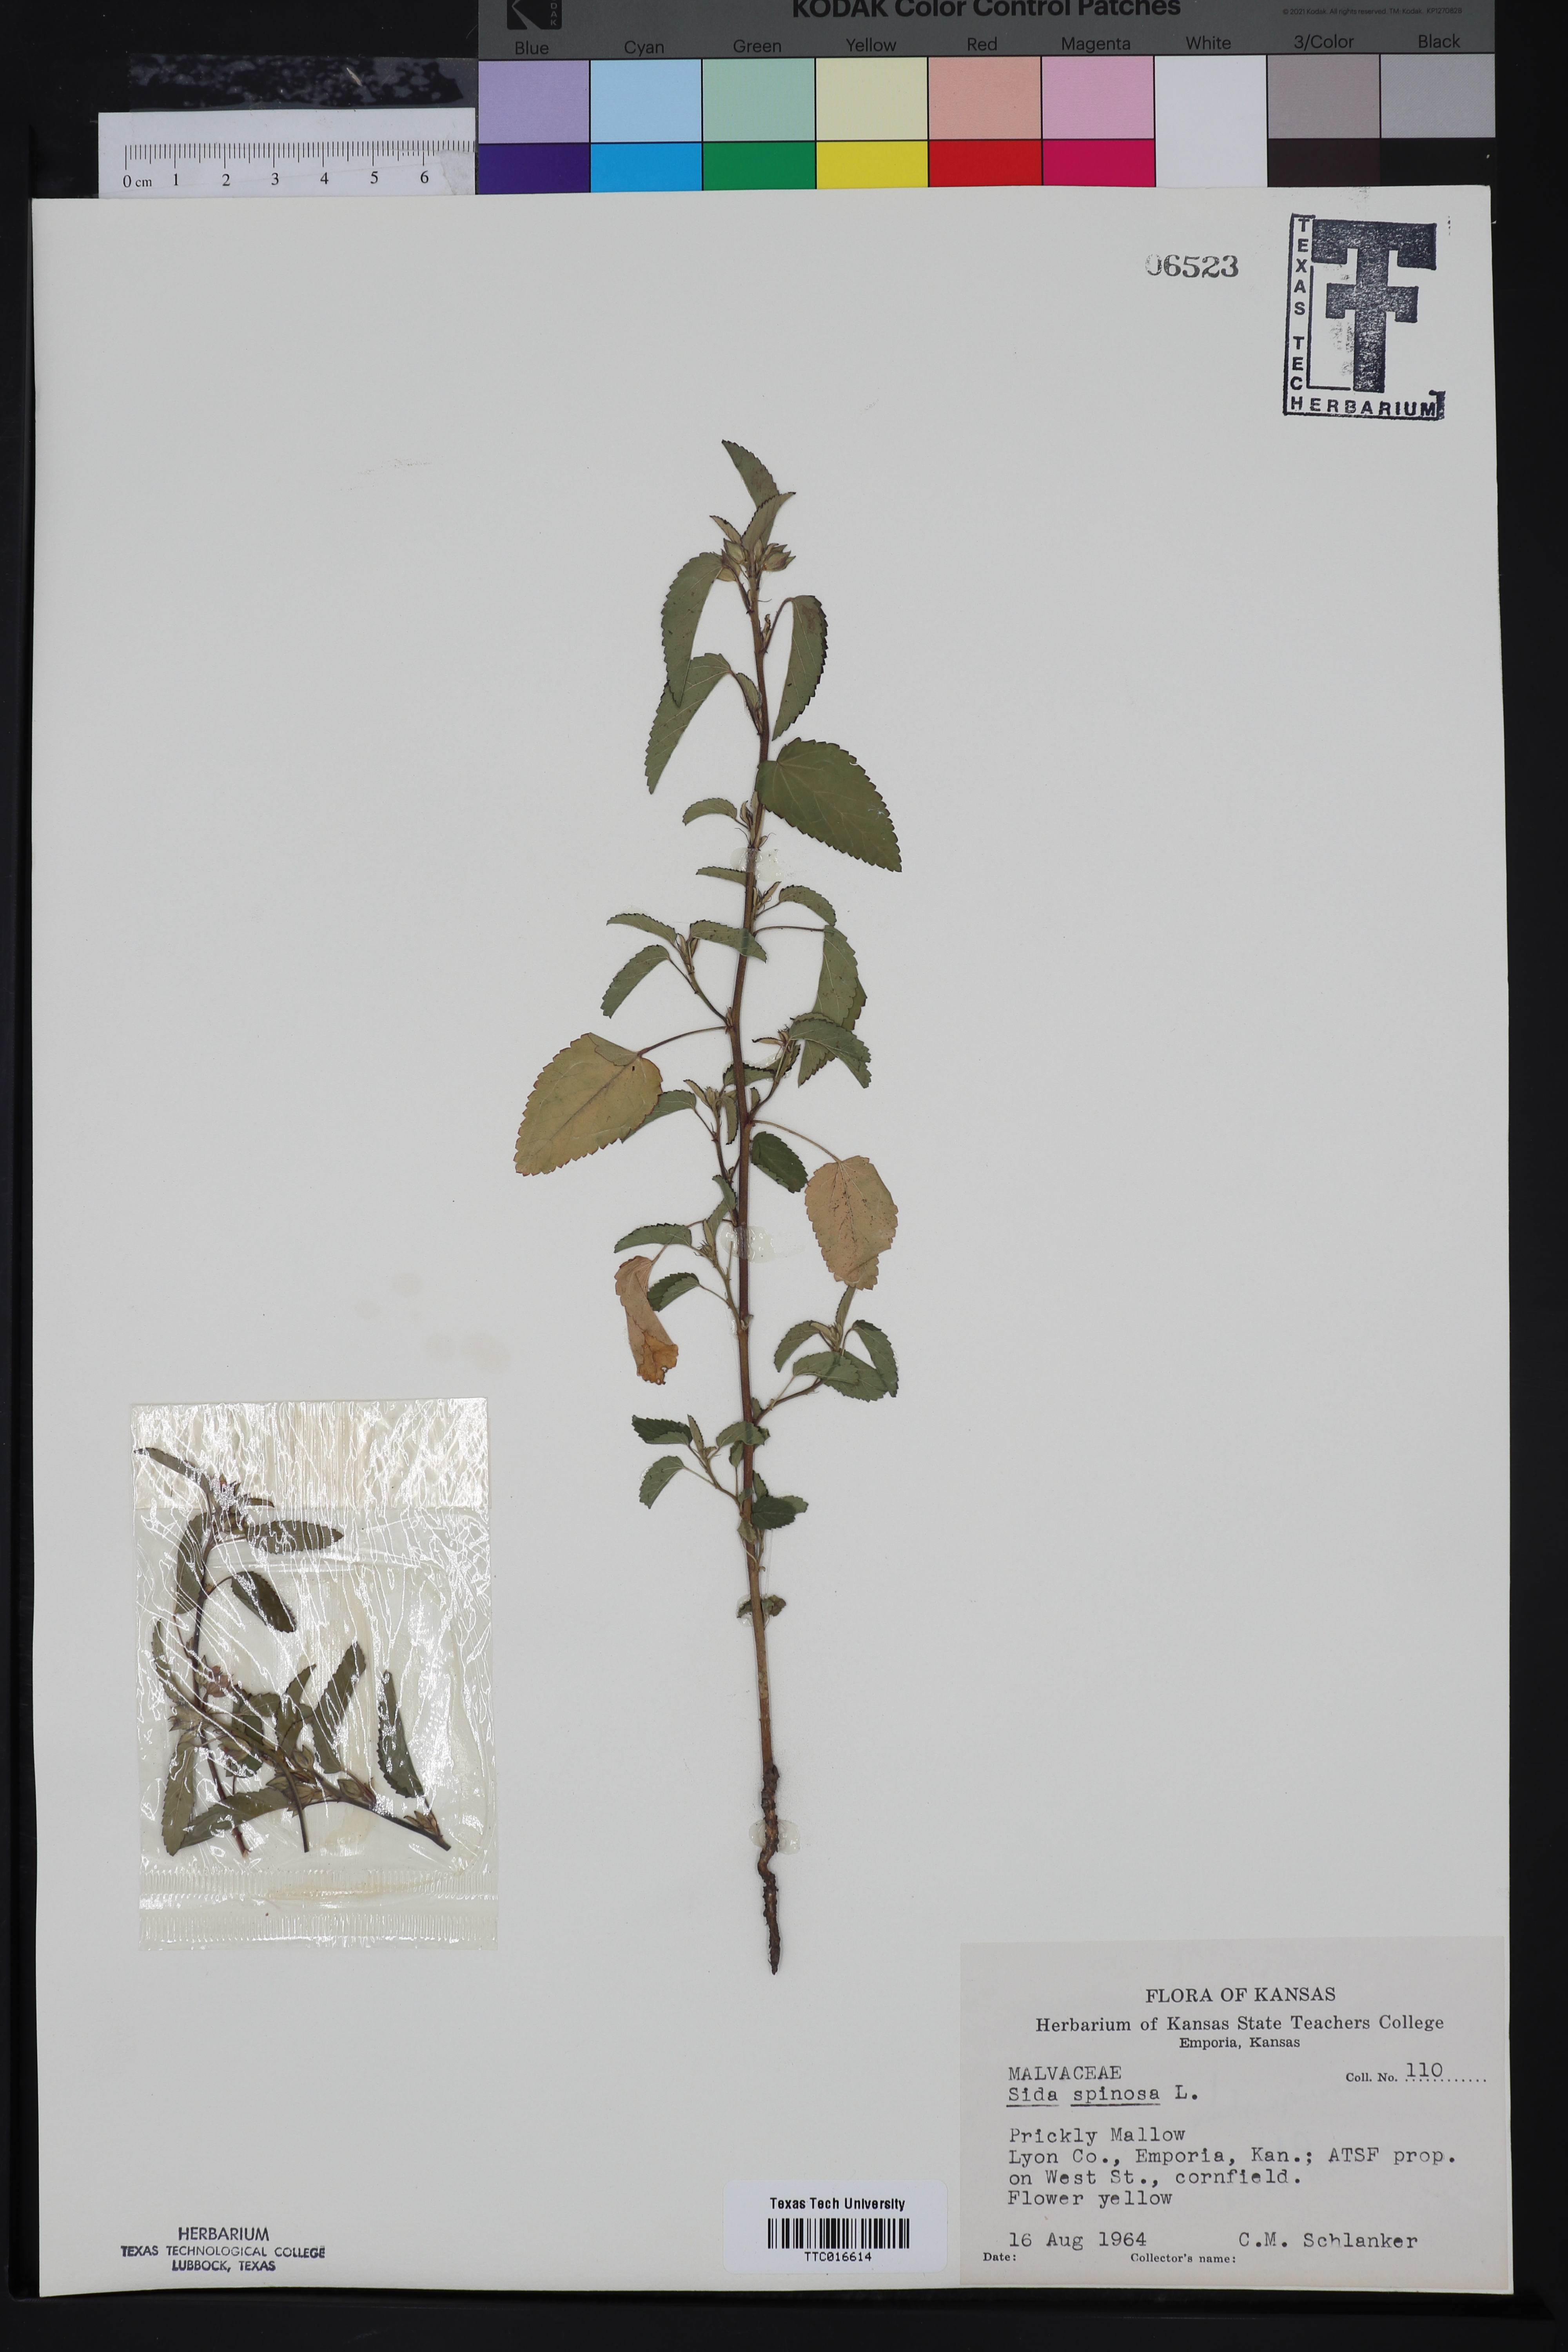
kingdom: Plantae
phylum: Tracheophyta
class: Magnoliopsida
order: Malvales
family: Malvaceae
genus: Sida
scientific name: Sida spinosa
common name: Prickly fanpetals
